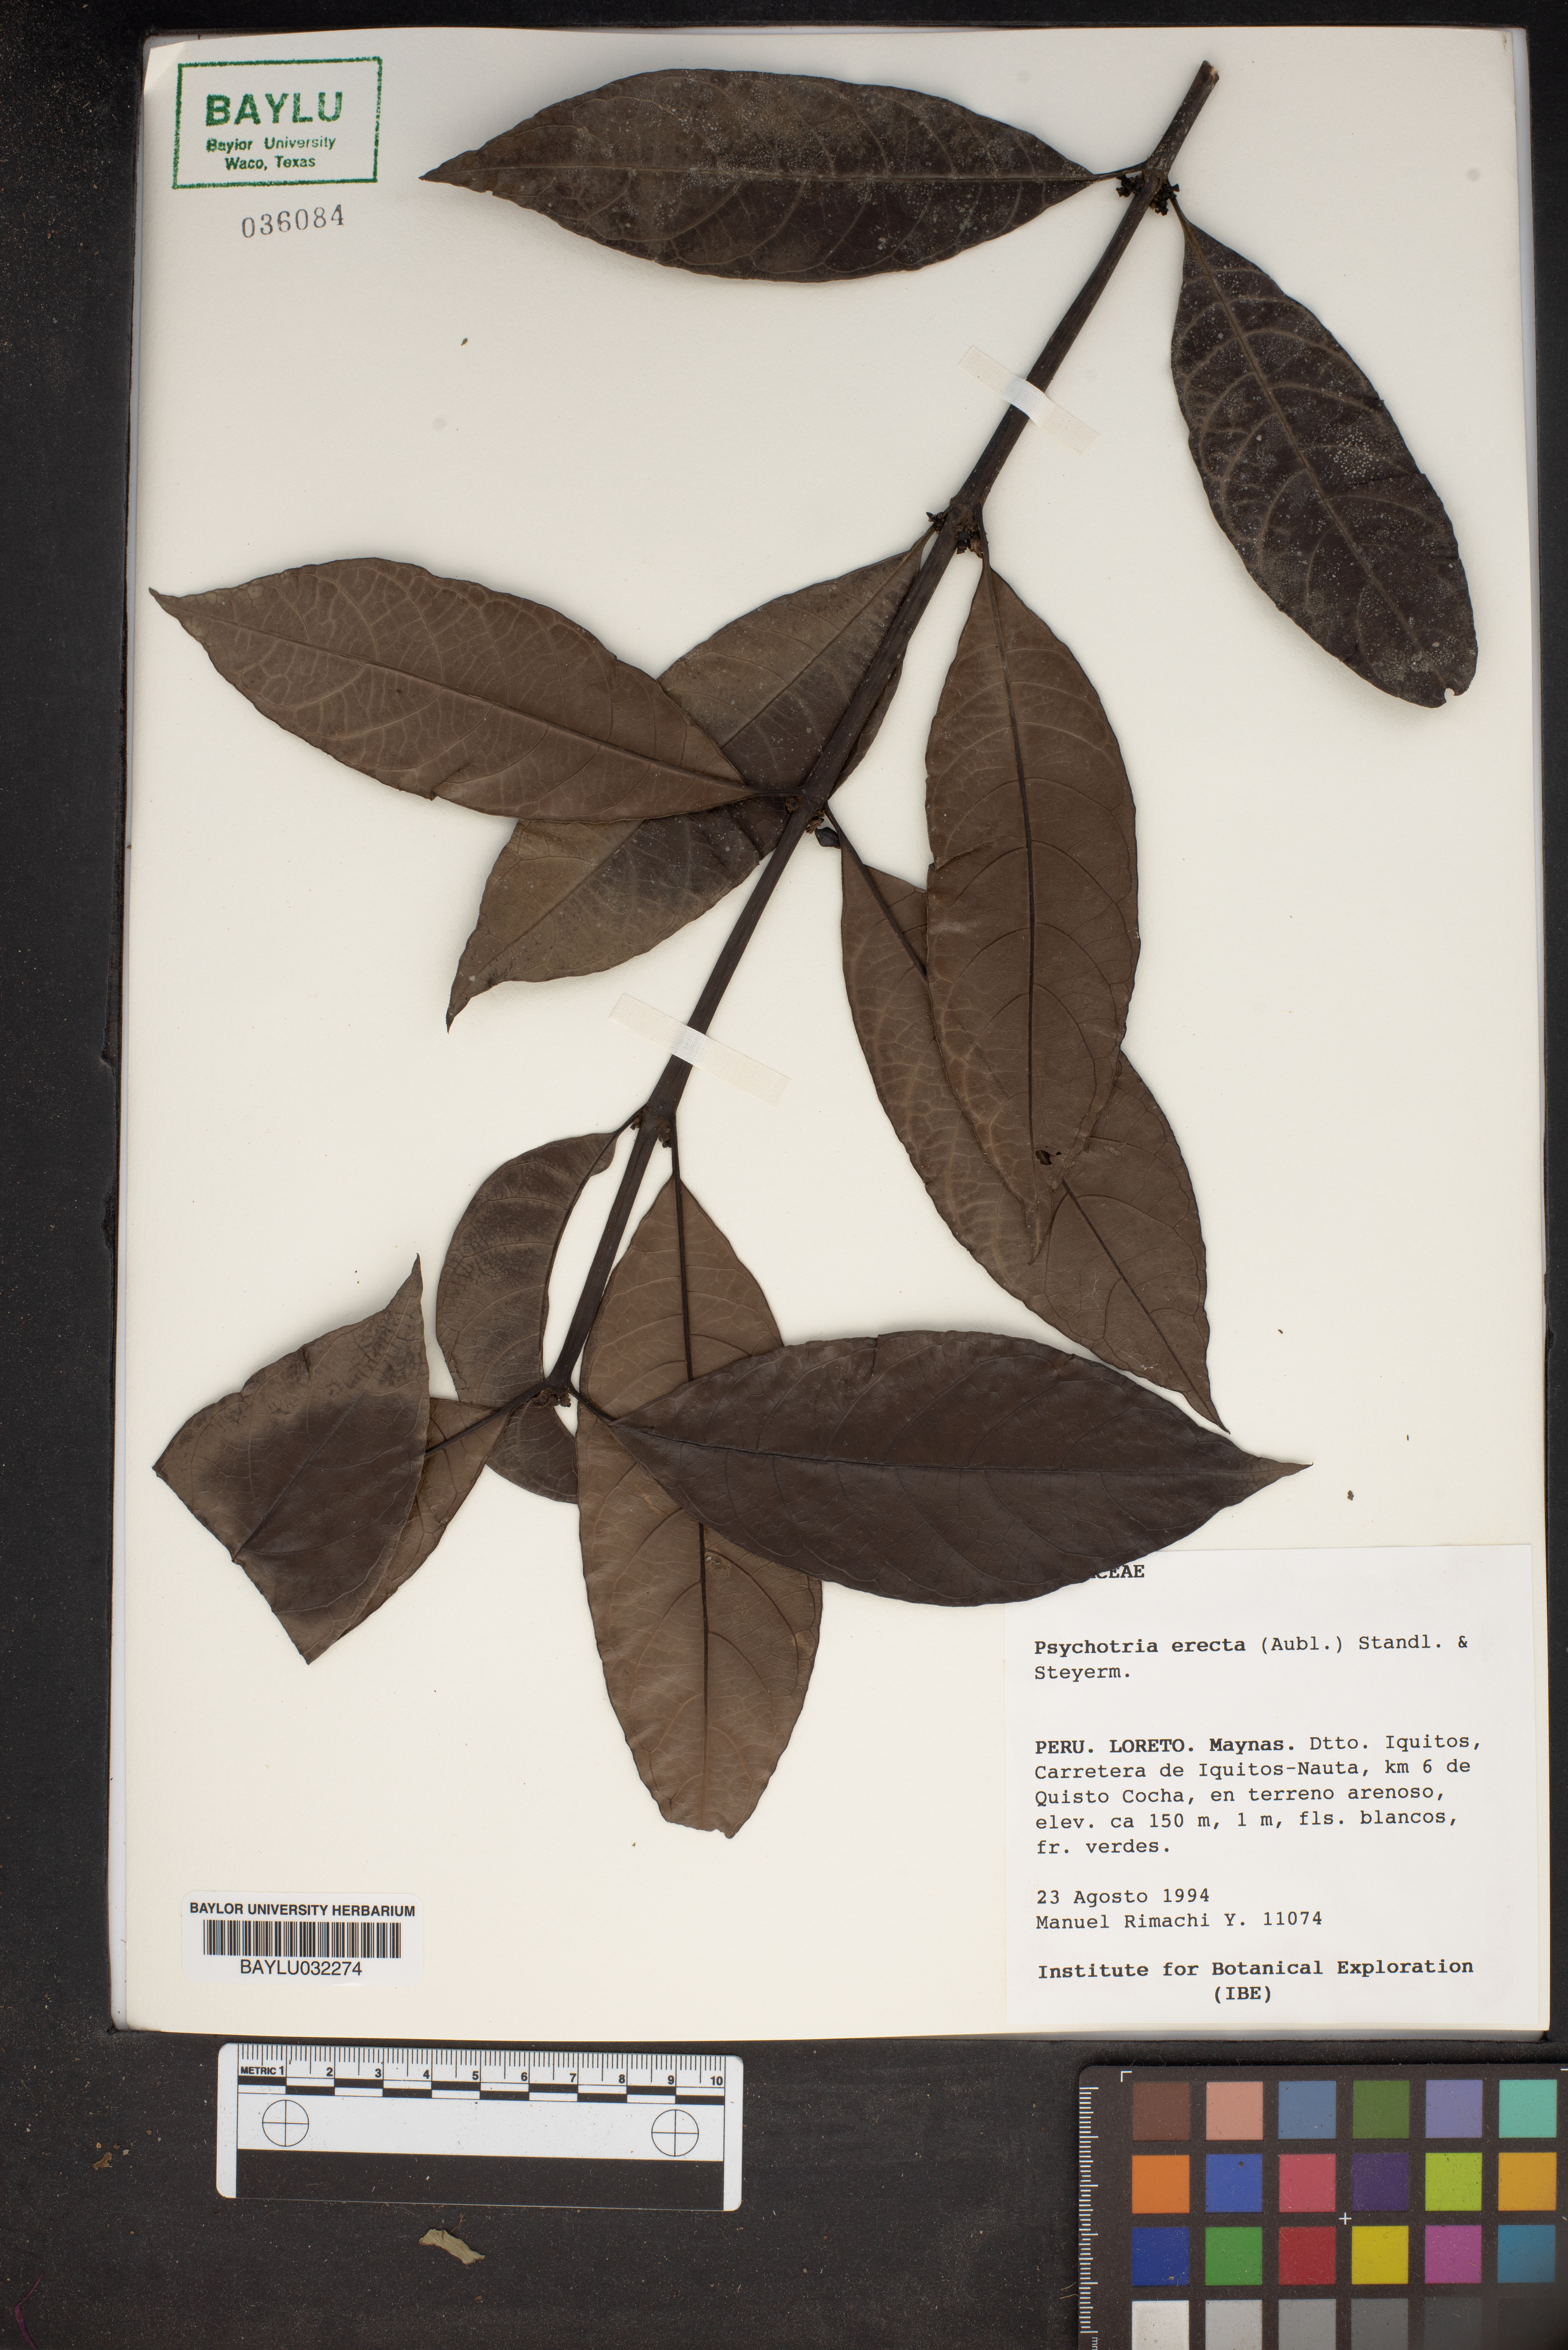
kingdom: Plantae
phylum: Tracheophyta
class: Magnoliopsida
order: Gentianales
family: Rubiaceae
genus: Ronabea
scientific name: Ronabea latifolia
